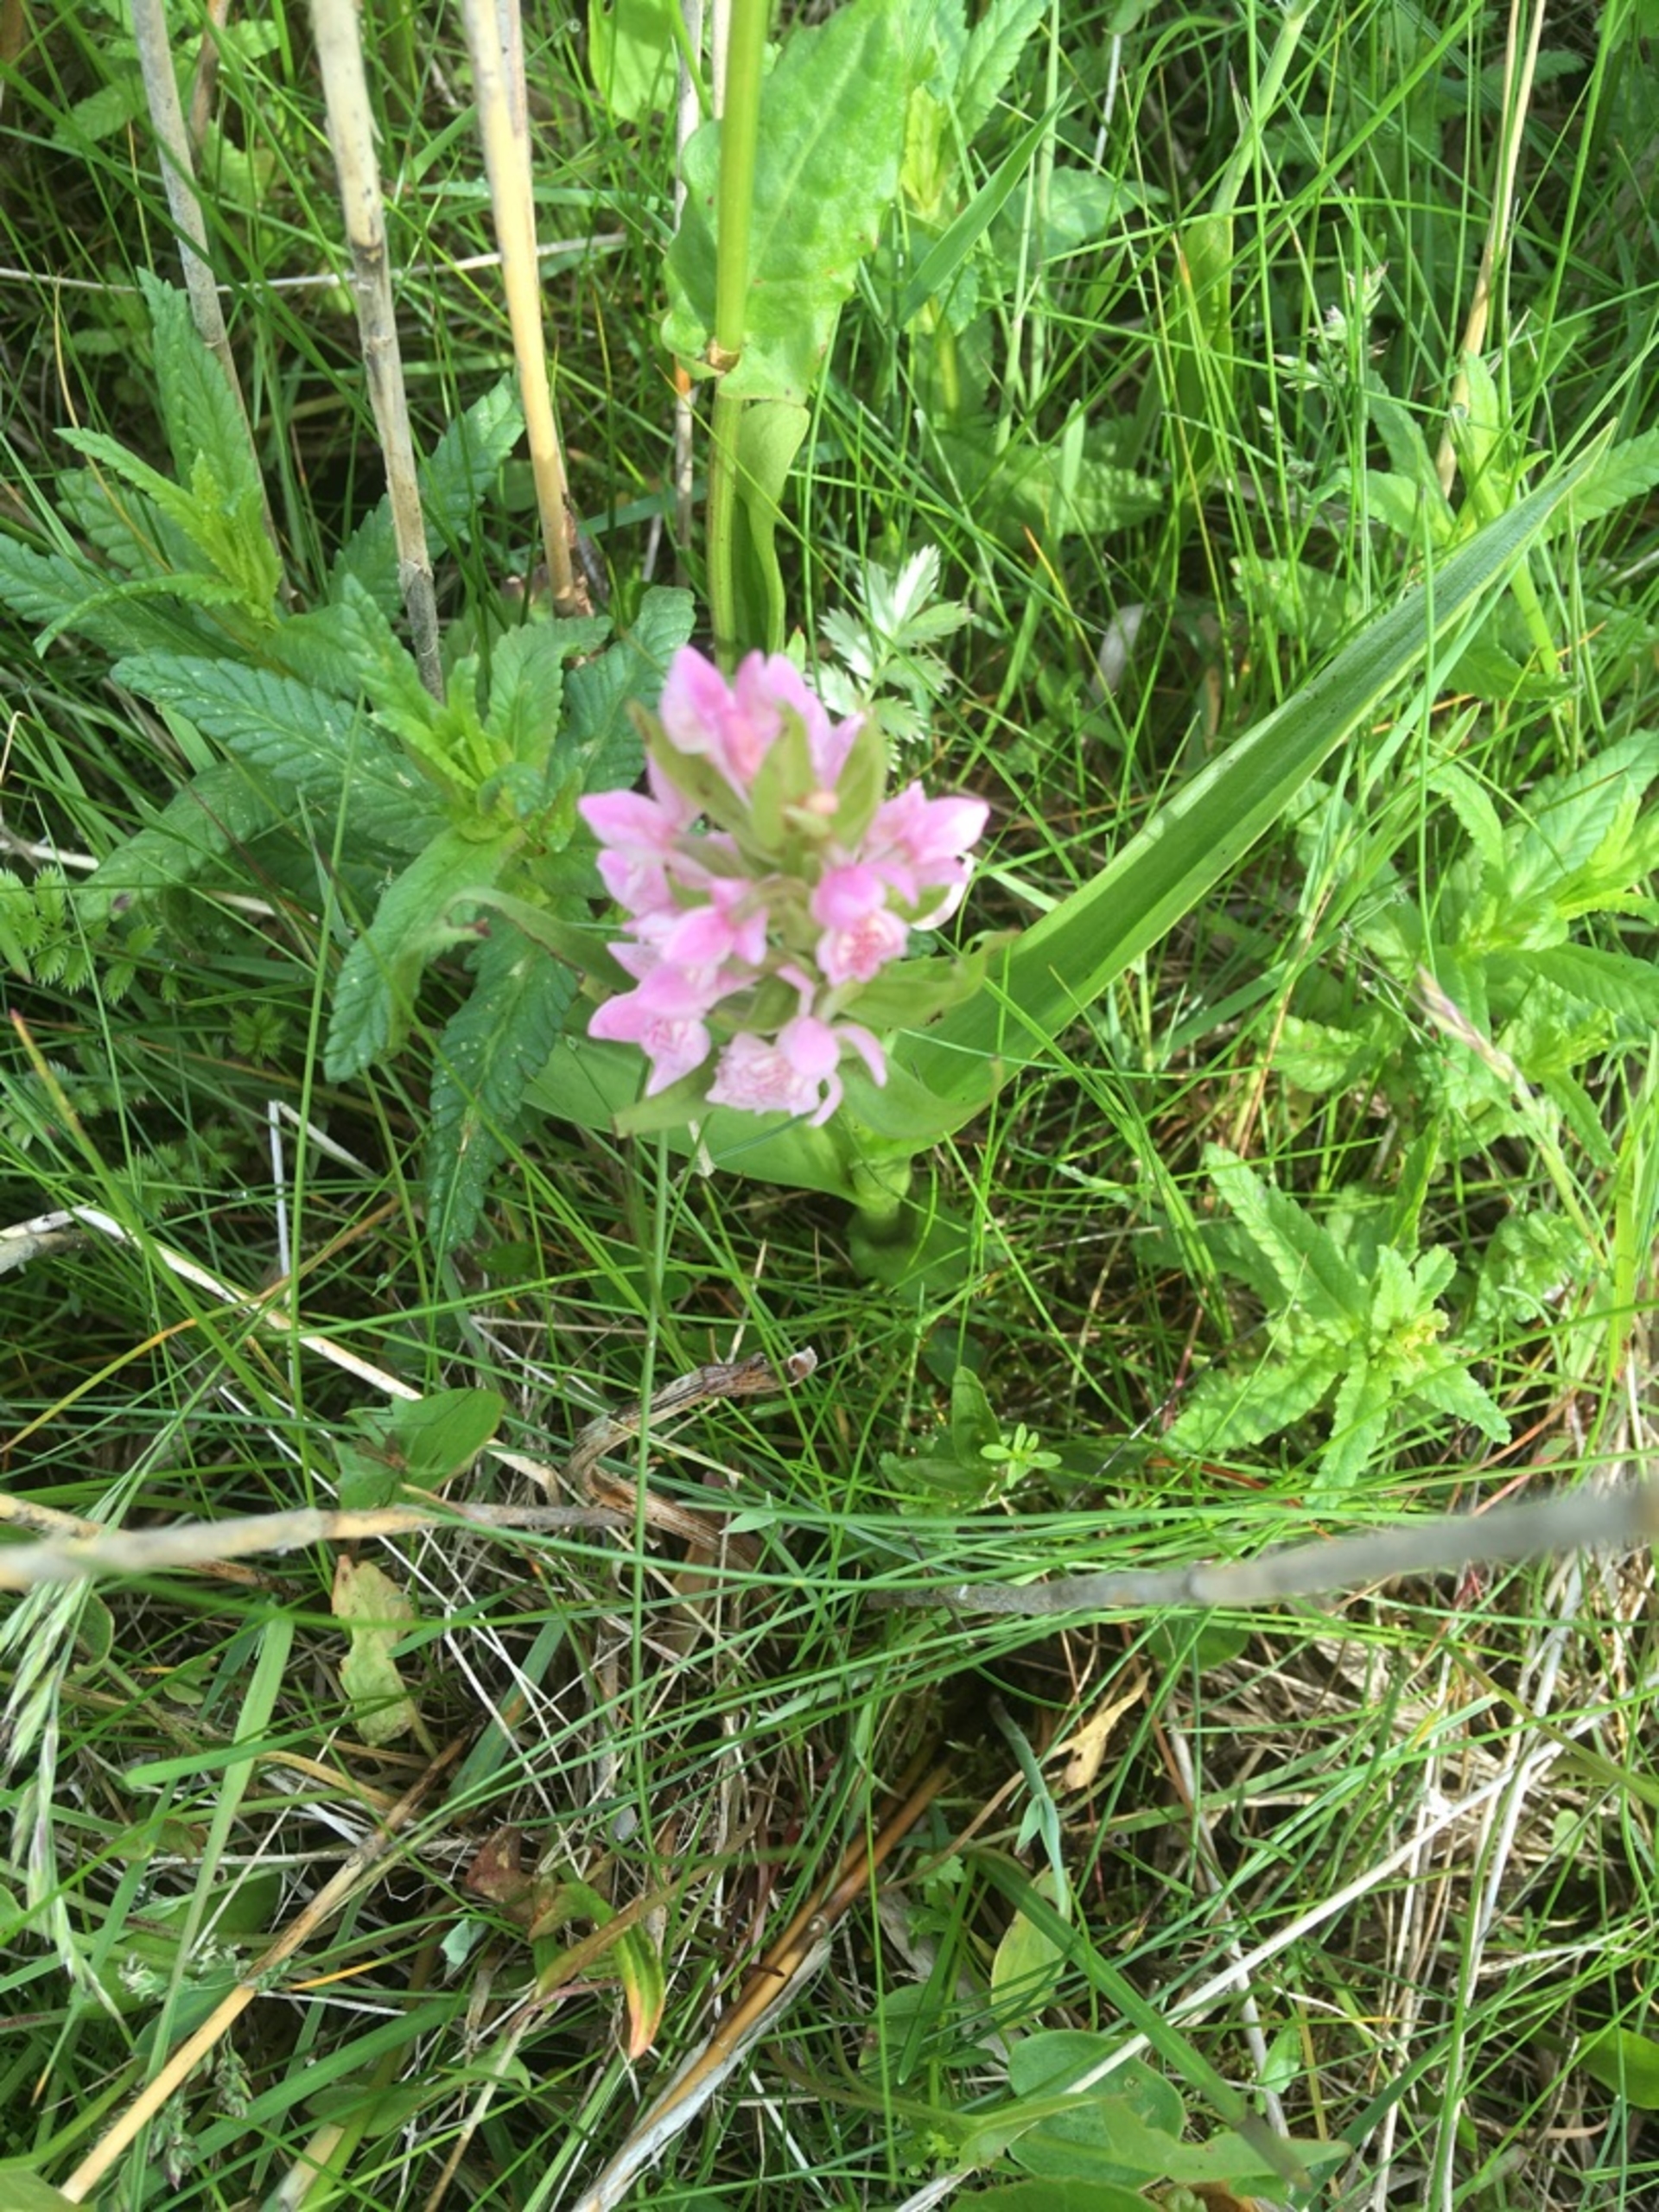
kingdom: Plantae
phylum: Tracheophyta
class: Liliopsida
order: Asparagales
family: Orchidaceae
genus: Dactylorhiza
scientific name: Dactylorhiza incarnata
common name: Kødfarvet gøgeurt
